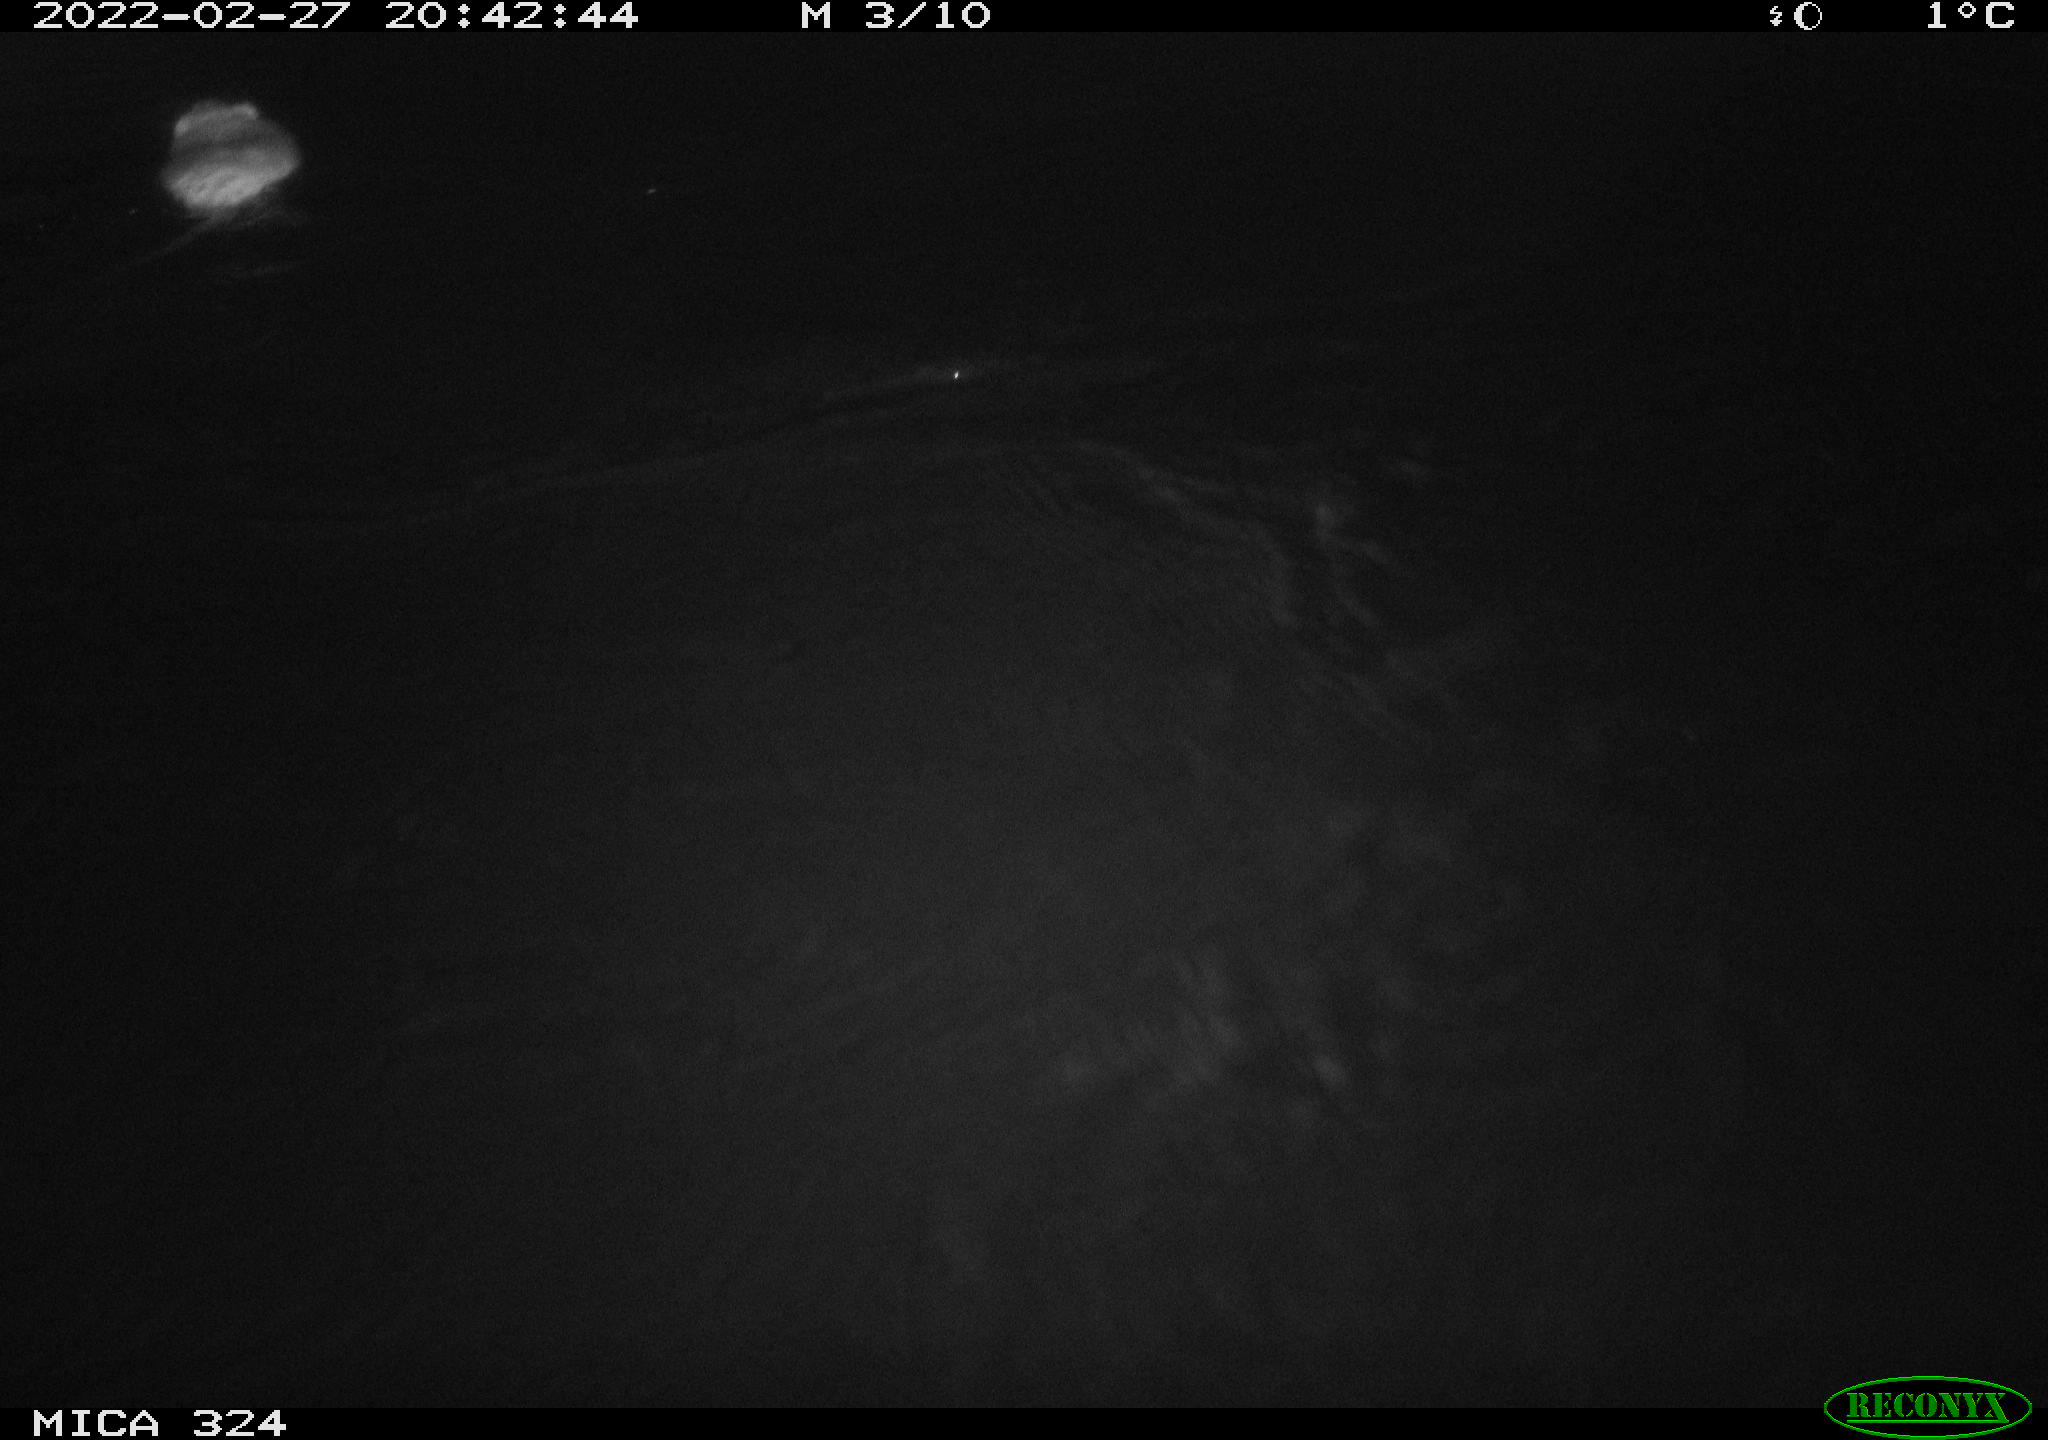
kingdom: Animalia
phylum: Chordata
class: Mammalia
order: Rodentia
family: Cricetidae
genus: Ondatra
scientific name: Ondatra zibethicus
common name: Muskrat
